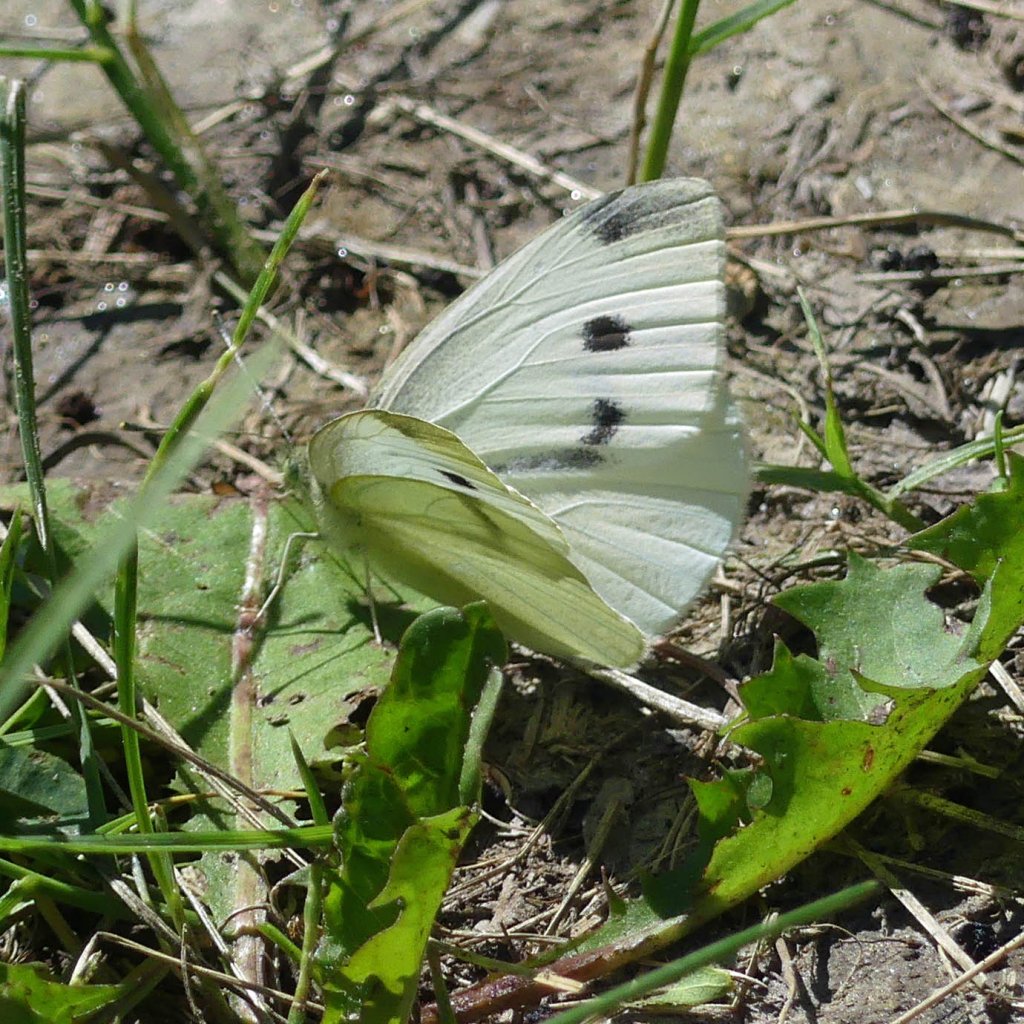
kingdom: Animalia
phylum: Arthropoda
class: Insecta
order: Lepidoptera
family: Pieridae
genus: Pieris
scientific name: Pieris rapae
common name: Cabbage White
